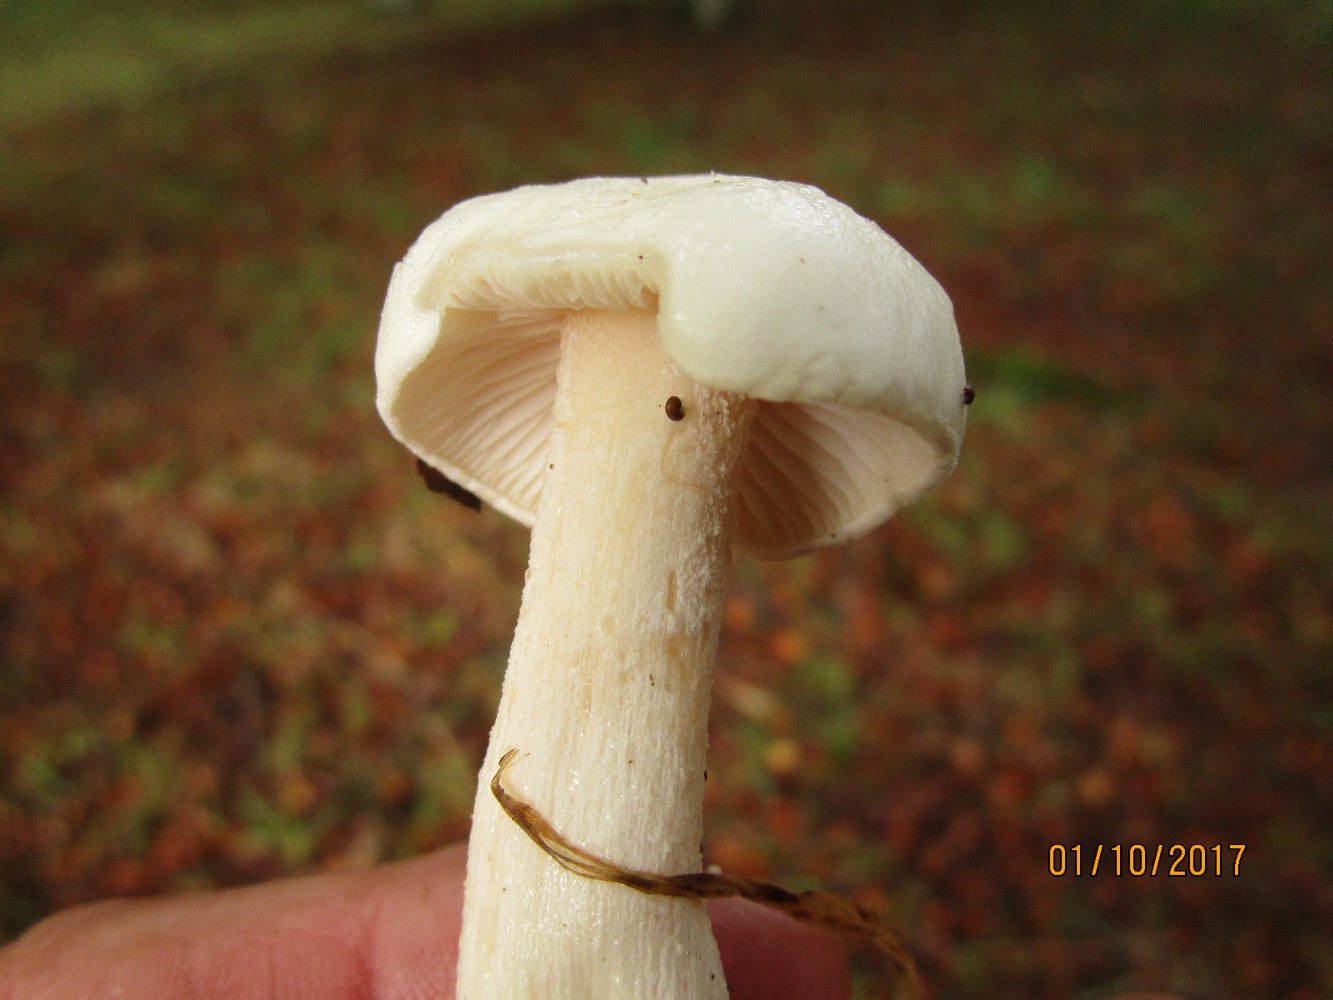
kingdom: Fungi
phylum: Basidiomycota
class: Agaricomycetes
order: Agaricales
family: Hygrophoraceae
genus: Hygrophorus
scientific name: Hygrophorus eburneus
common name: elfenbens-sneglehat
